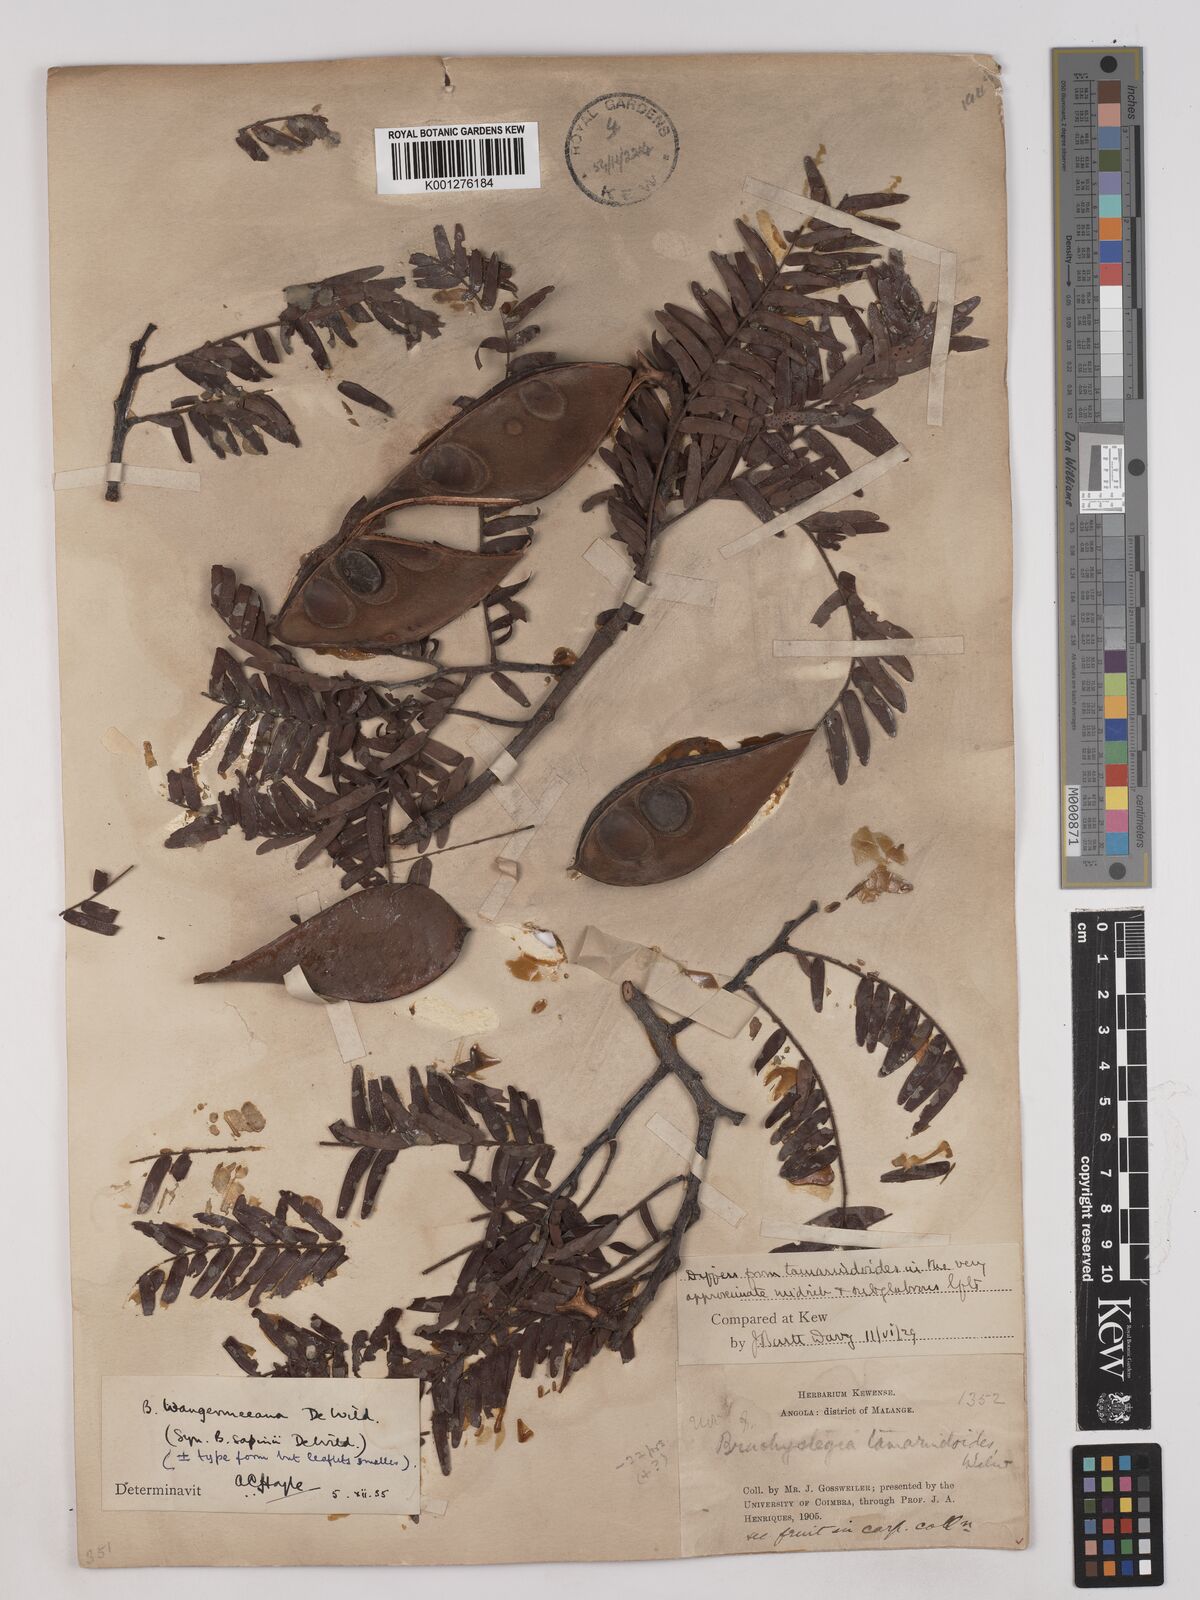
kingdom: Plantae
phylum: Tracheophyta
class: Magnoliopsida
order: Fabales
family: Fabaceae
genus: Brachystegia
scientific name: Brachystegia tamarindoides
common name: Mountain acacia
